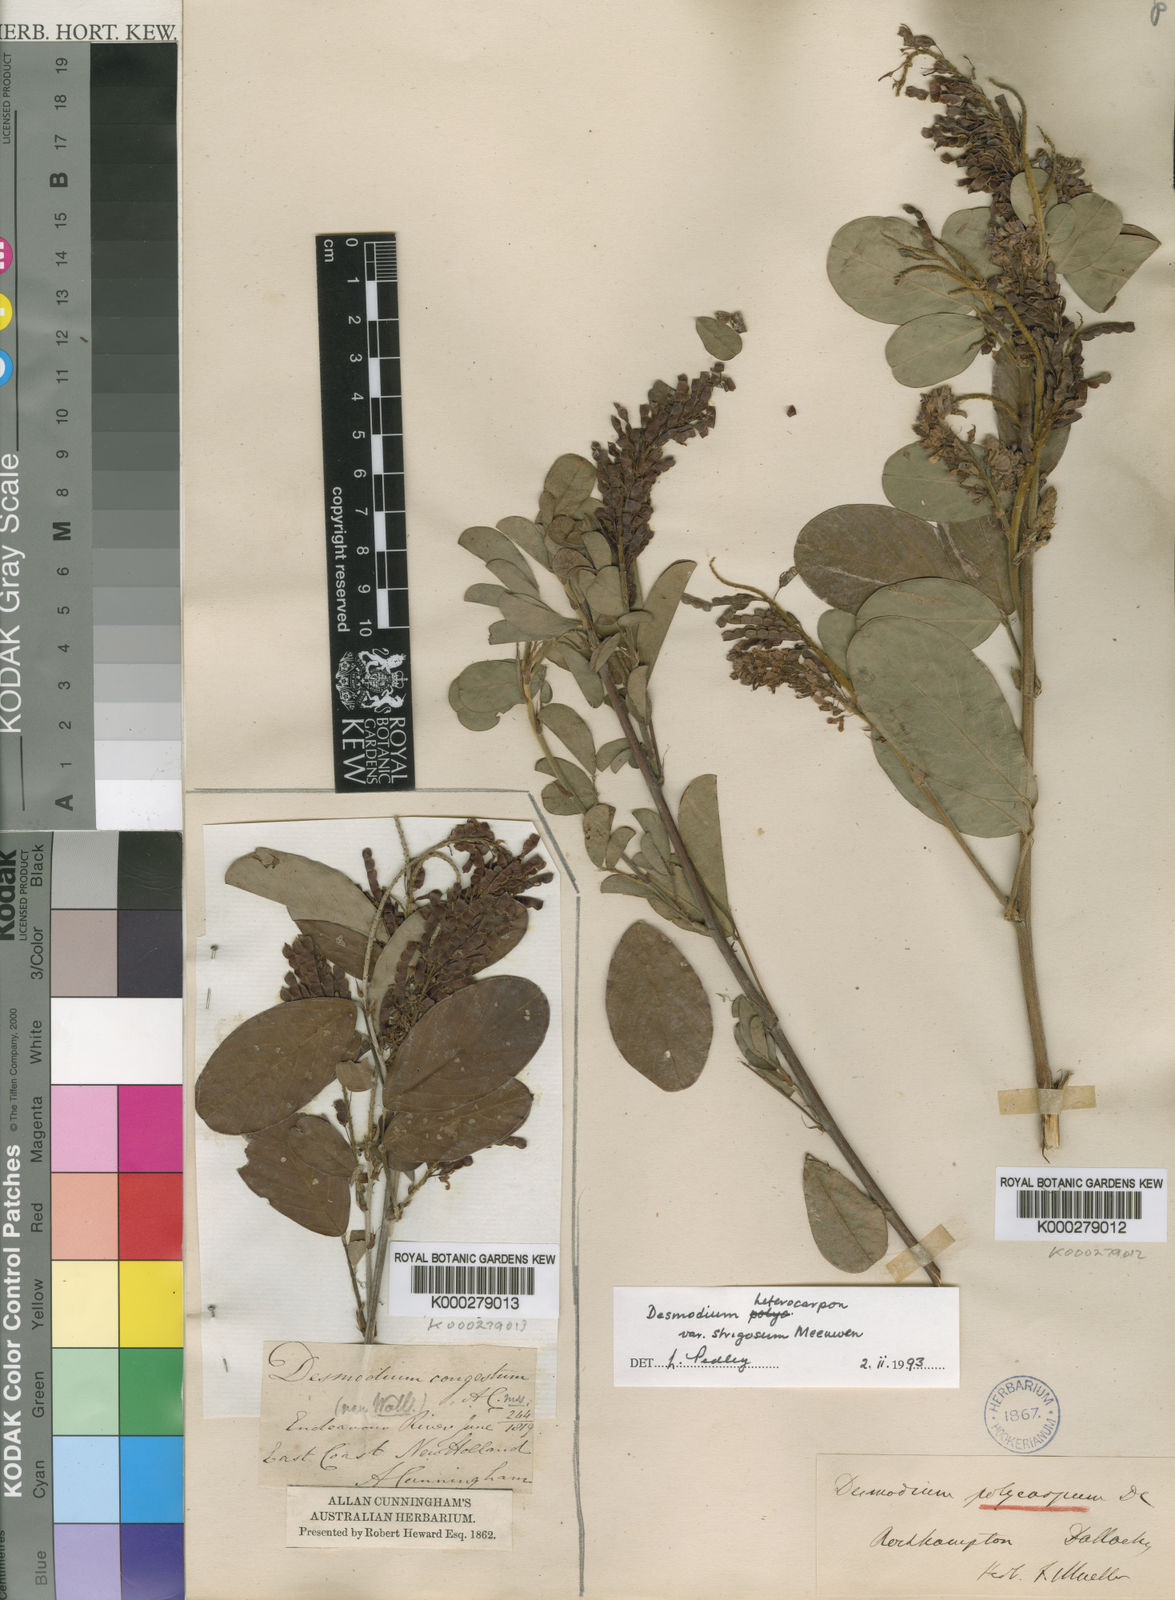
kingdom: Plantae
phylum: Tracheophyta
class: Magnoliopsida
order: Fabales
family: Fabaceae
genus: Grona
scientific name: Grona heterocarpos
